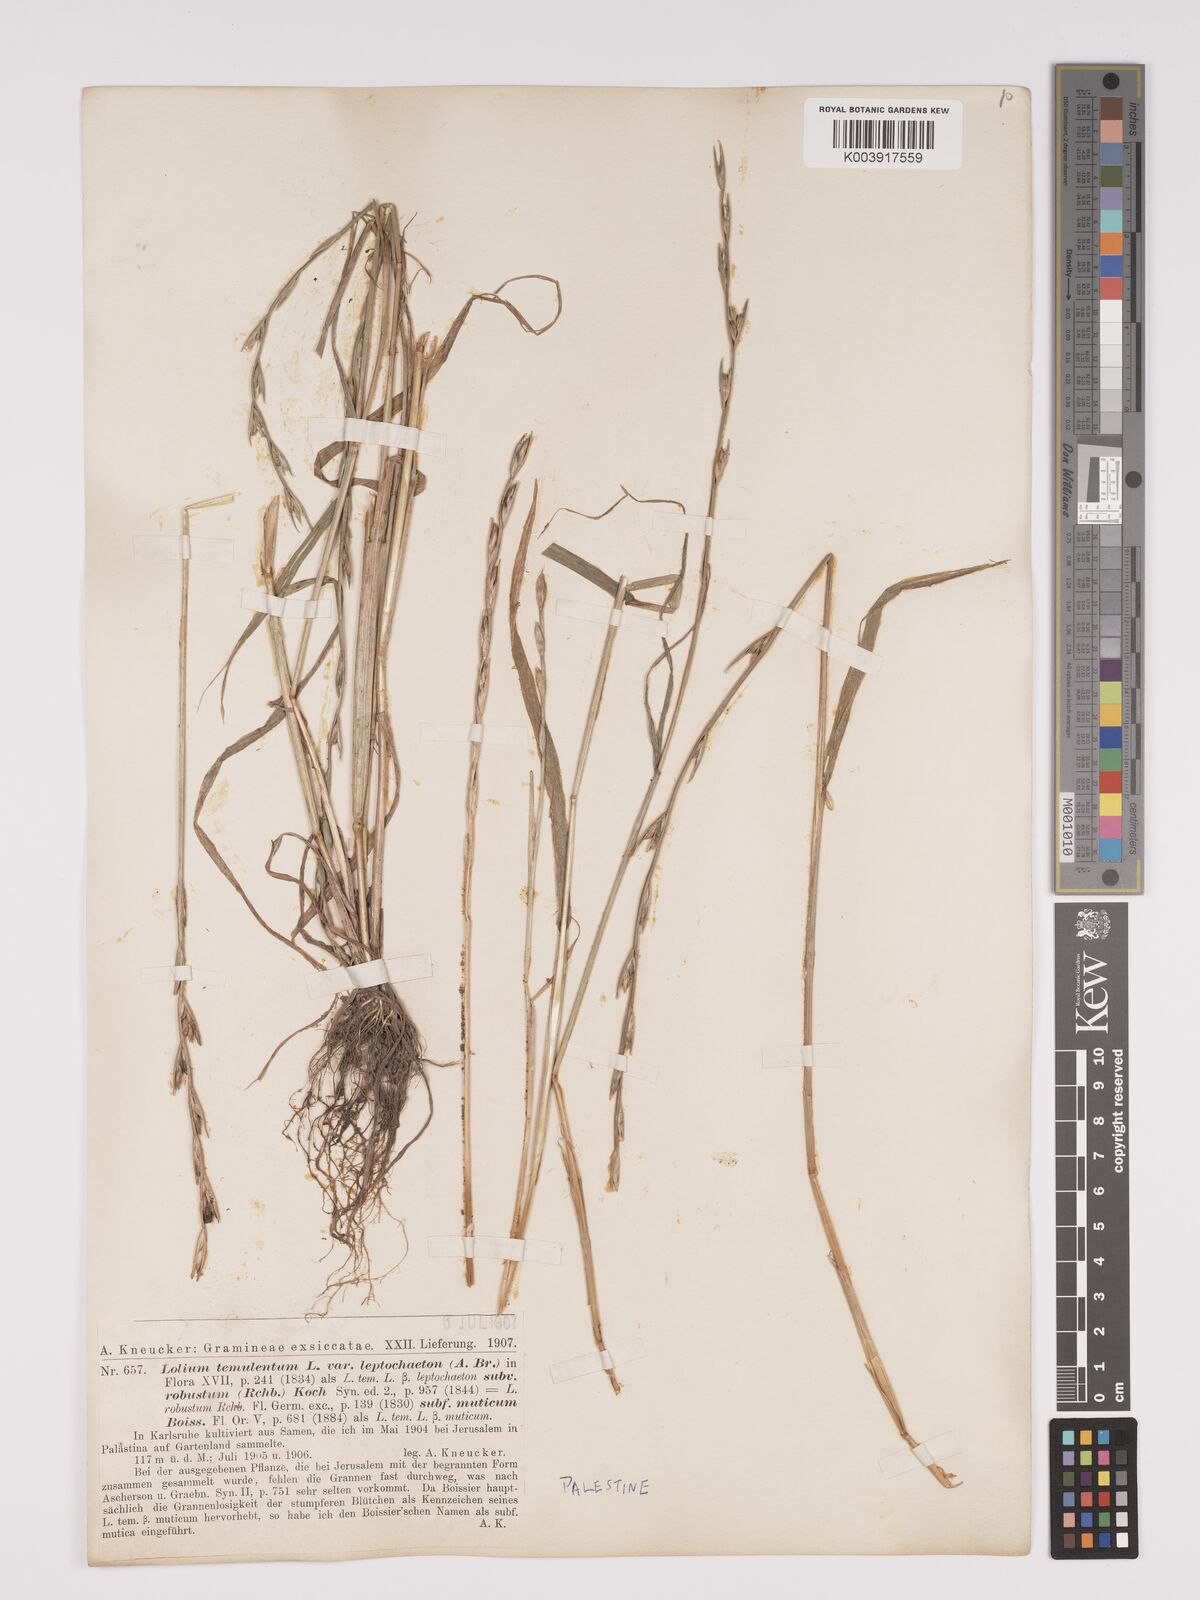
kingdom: Plantae
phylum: Tracheophyta
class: Liliopsida
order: Poales
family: Poaceae
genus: Lolium
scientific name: Lolium temulentum
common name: Darnel
